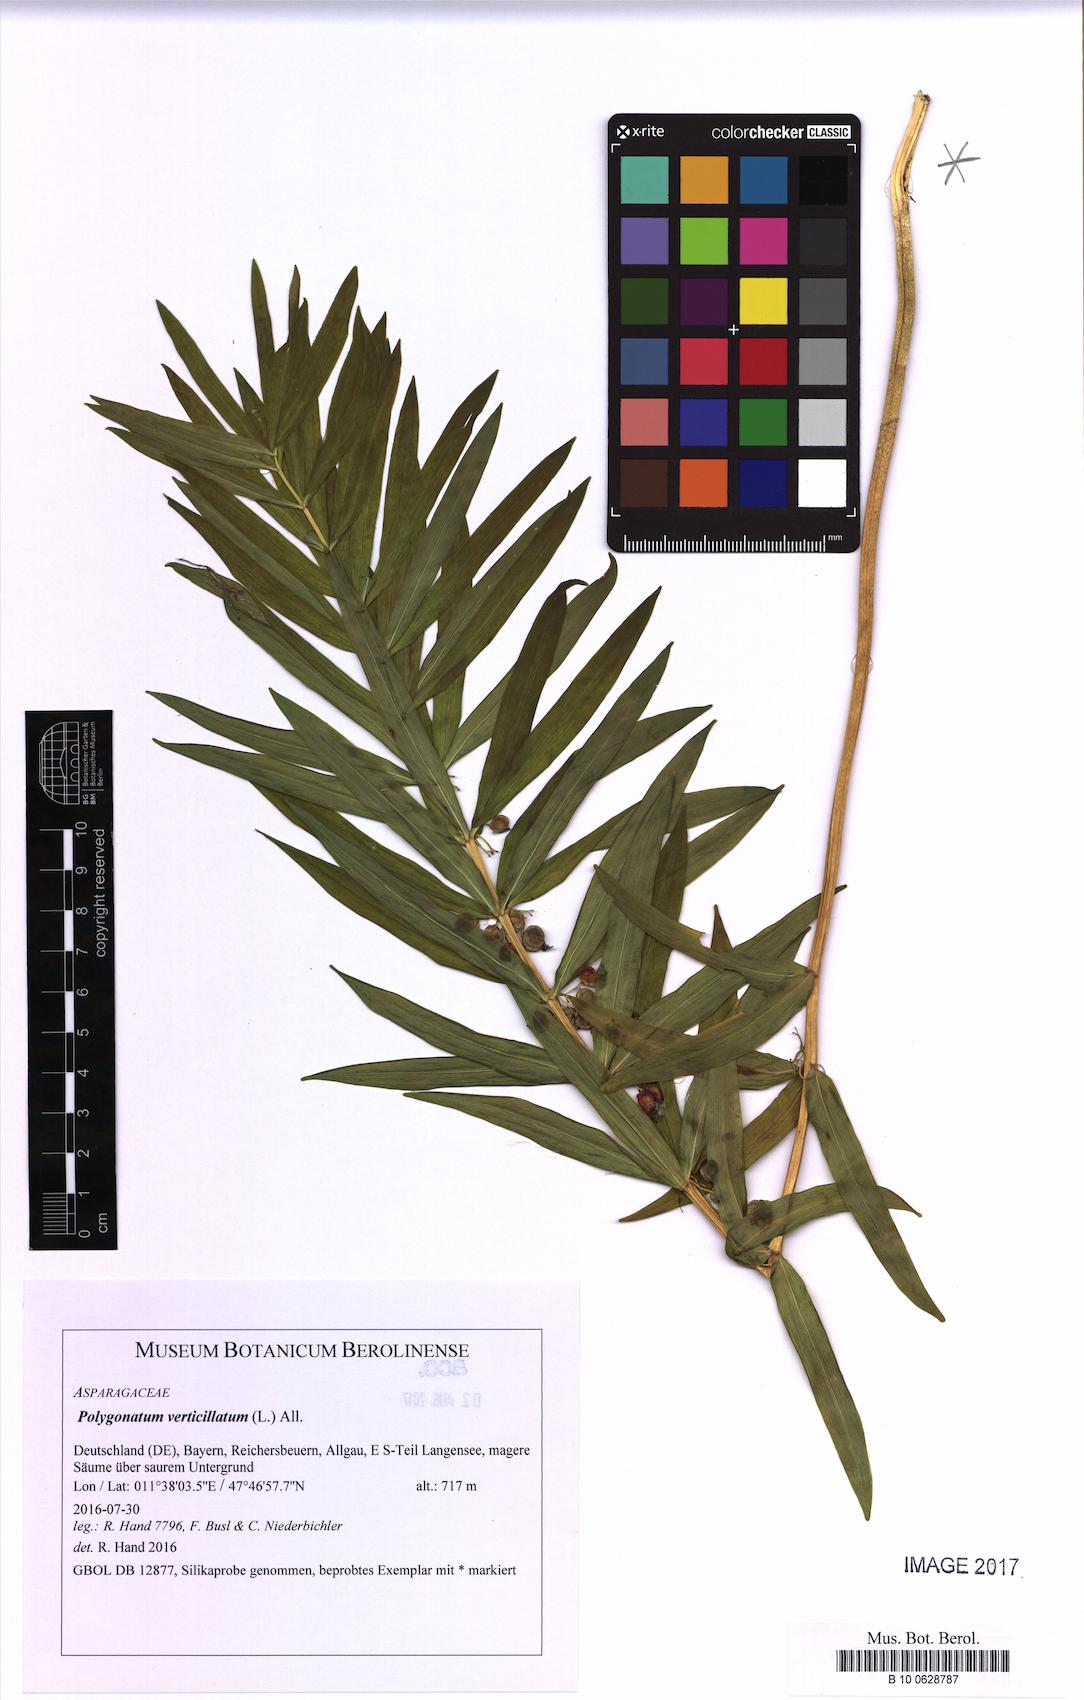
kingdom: Plantae
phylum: Tracheophyta
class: Liliopsida
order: Asparagales
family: Asparagaceae
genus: Polygonatum
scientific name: Polygonatum verticillatum
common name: Whorled solomon's-seal
